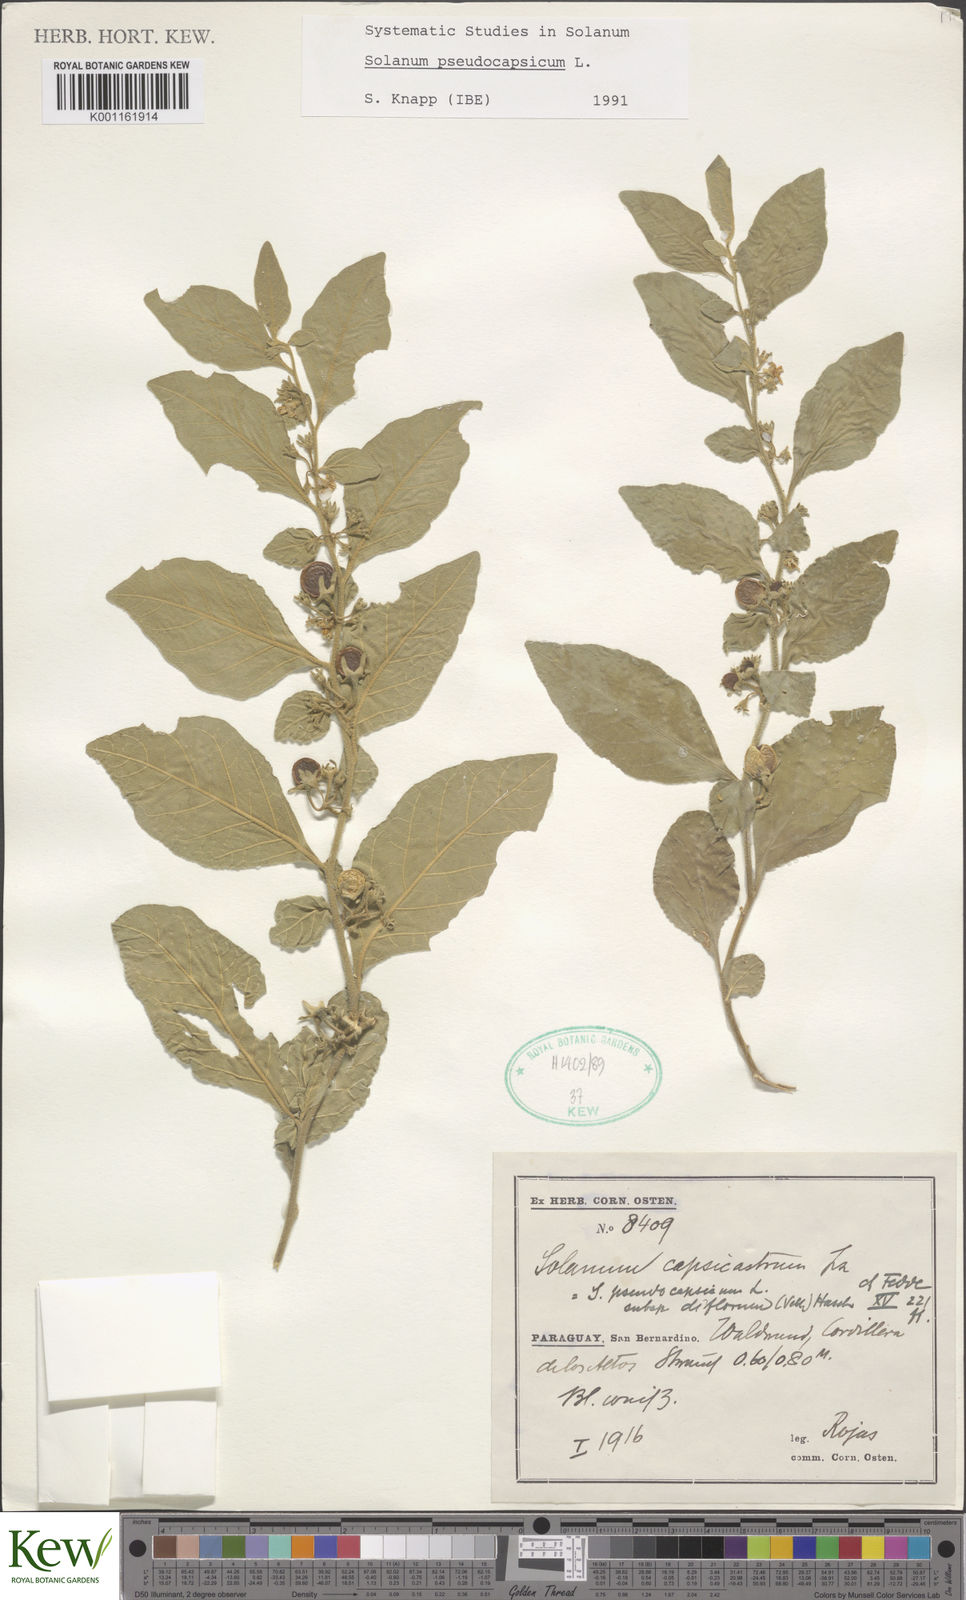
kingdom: Plantae
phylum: Tracheophyta
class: Magnoliopsida
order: Solanales
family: Solanaceae
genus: Solanum
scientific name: Solanum pseudocapsicum
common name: Jerusalem cherry
